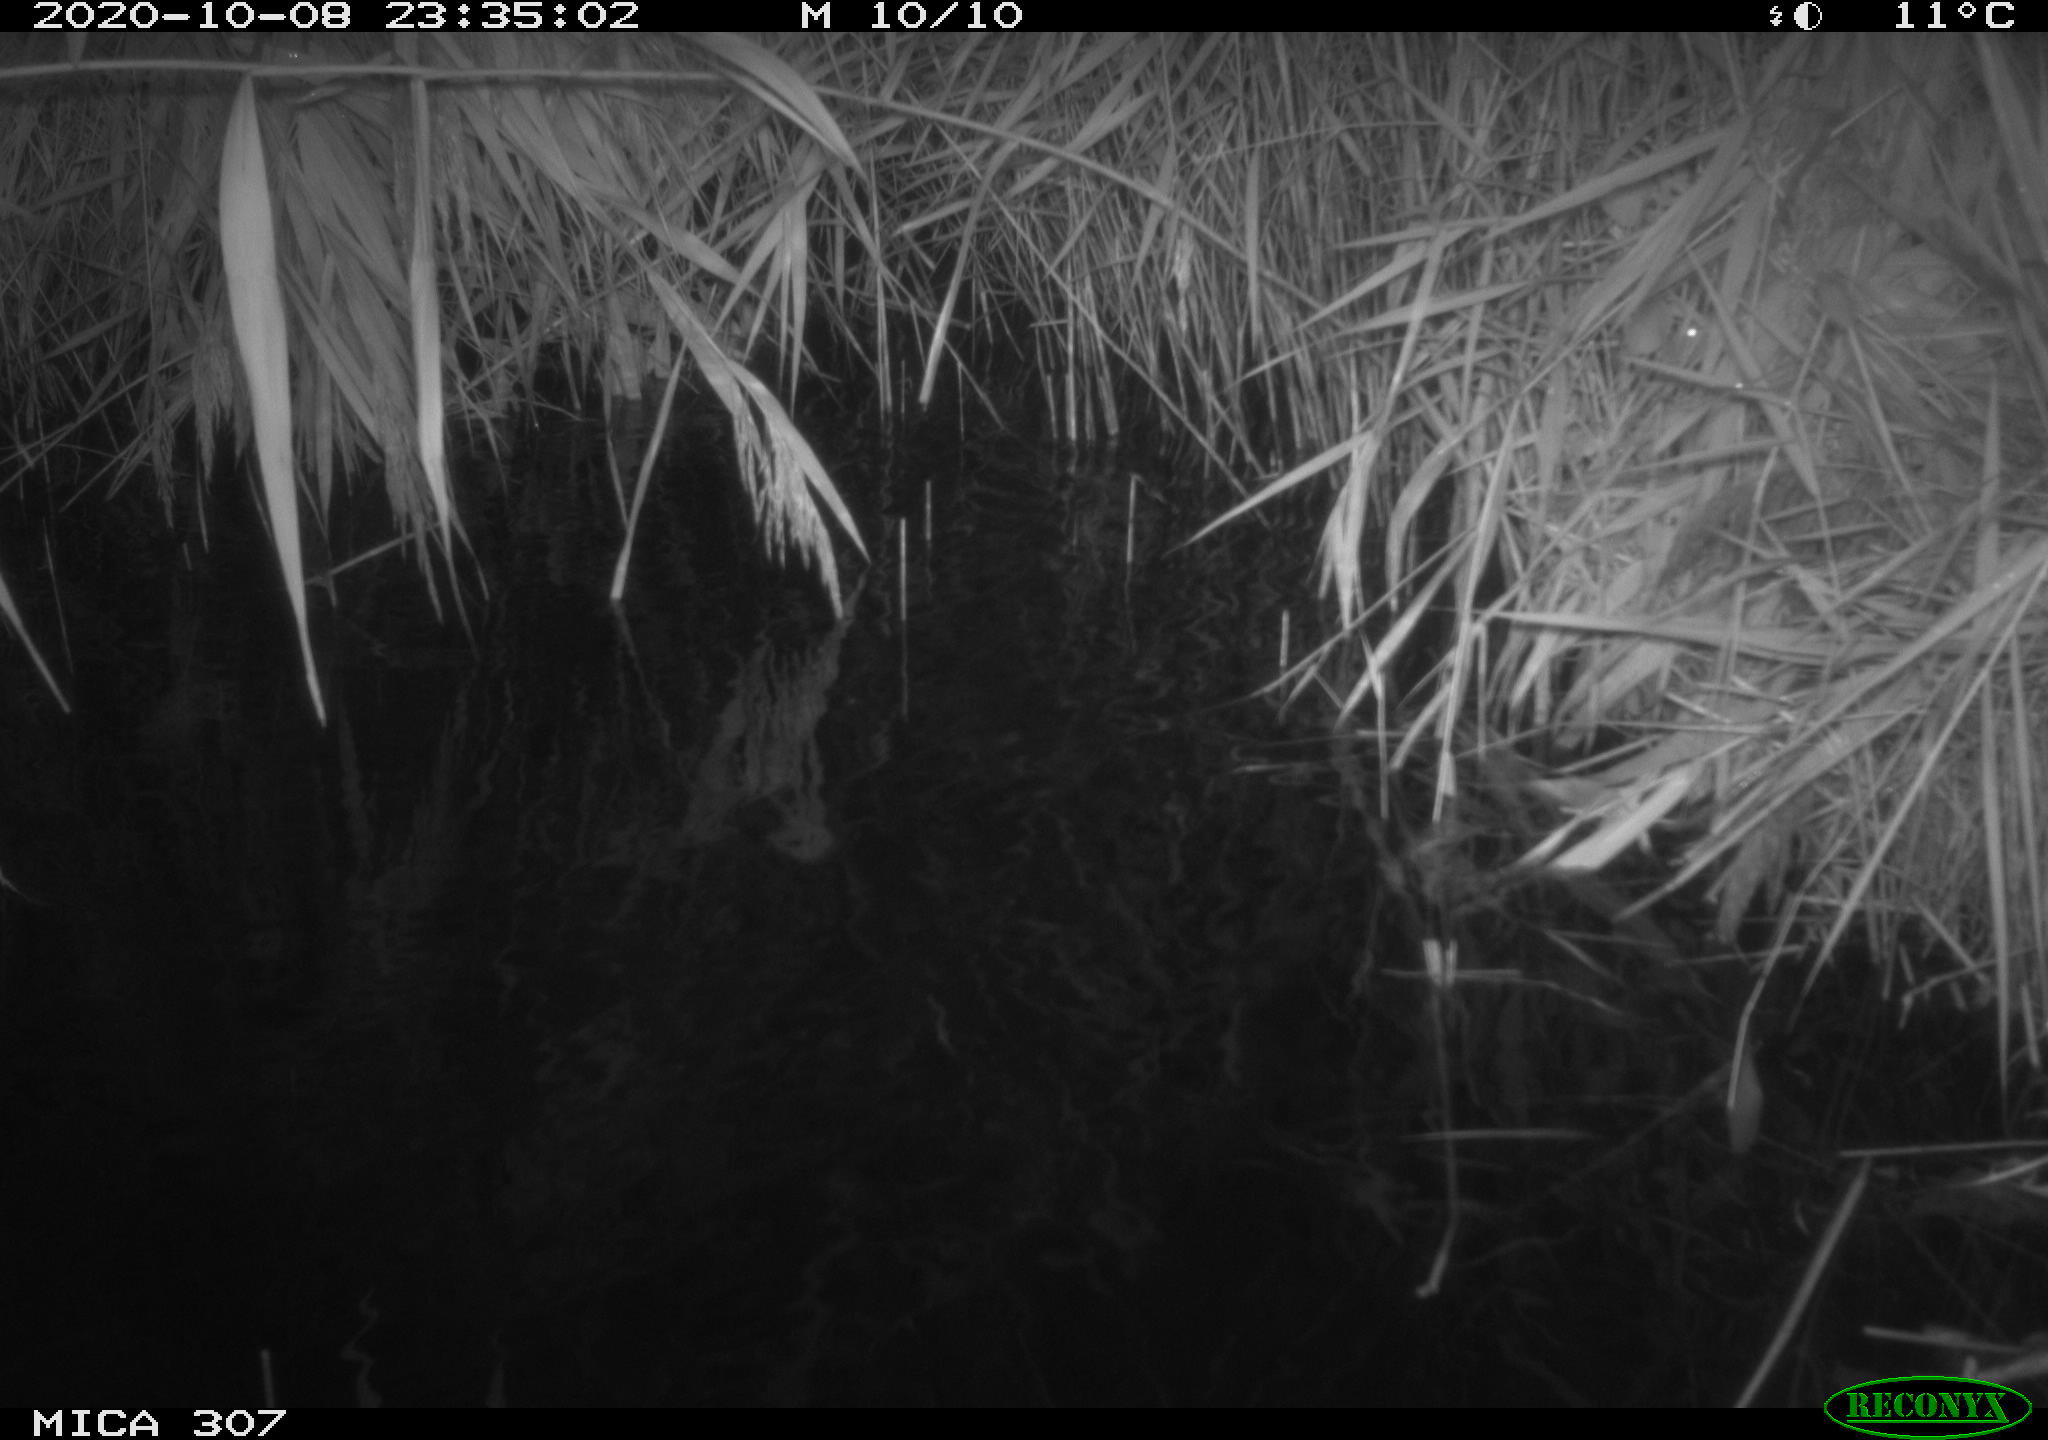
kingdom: Animalia
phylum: Chordata
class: Mammalia
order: Rodentia
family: Muridae
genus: Rattus
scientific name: Rattus norvegicus
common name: Brown rat
